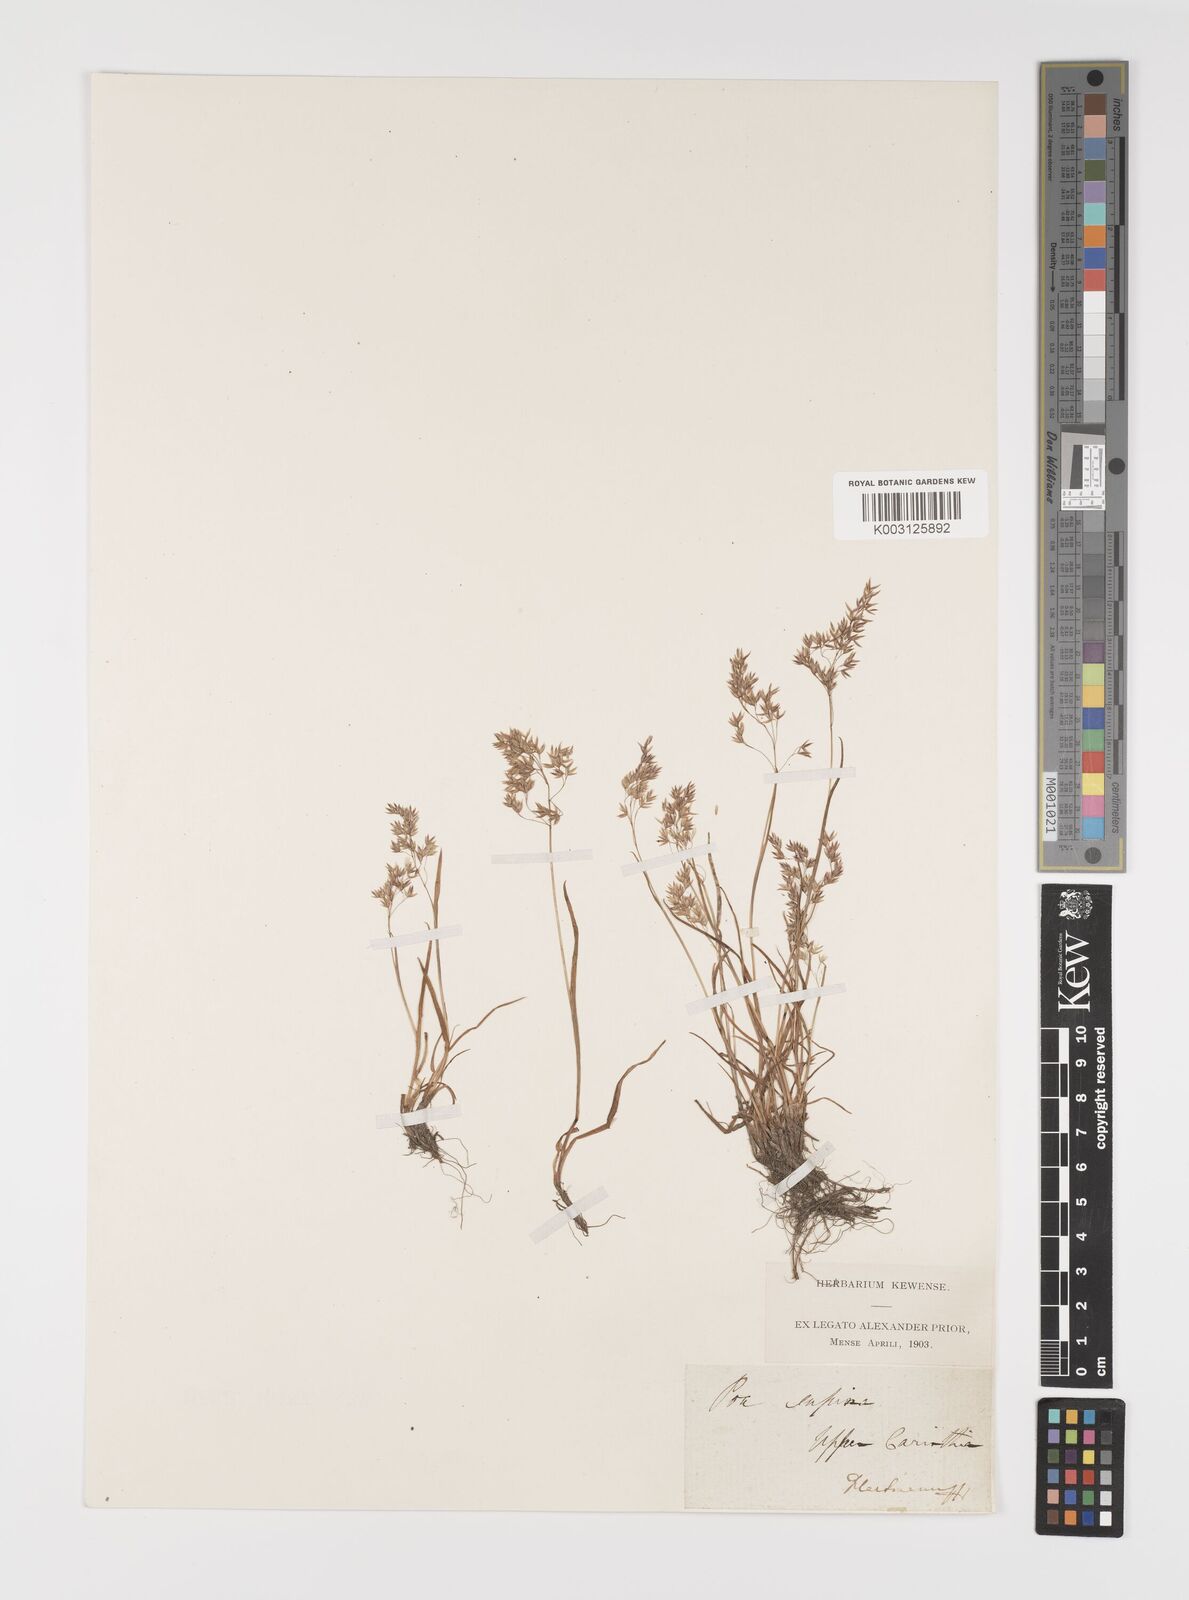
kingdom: Plantae
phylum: Tracheophyta
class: Liliopsida
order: Poales
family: Poaceae
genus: Poa
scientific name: Poa laxa
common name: Lax bluegrass
